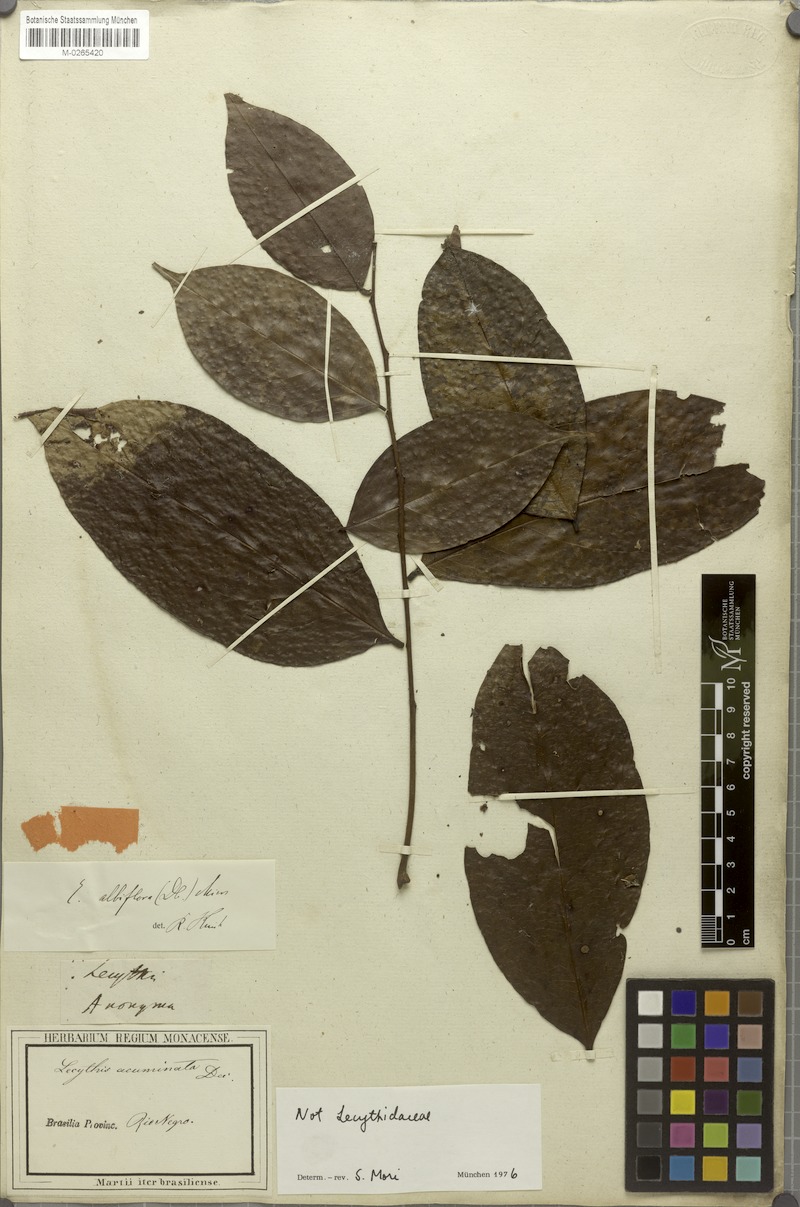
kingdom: Plantae
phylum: Tracheophyta
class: Magnoliopsida
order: Ericales
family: Lecythidaceae
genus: Eschweilera
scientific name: Eschweilera albiflora
